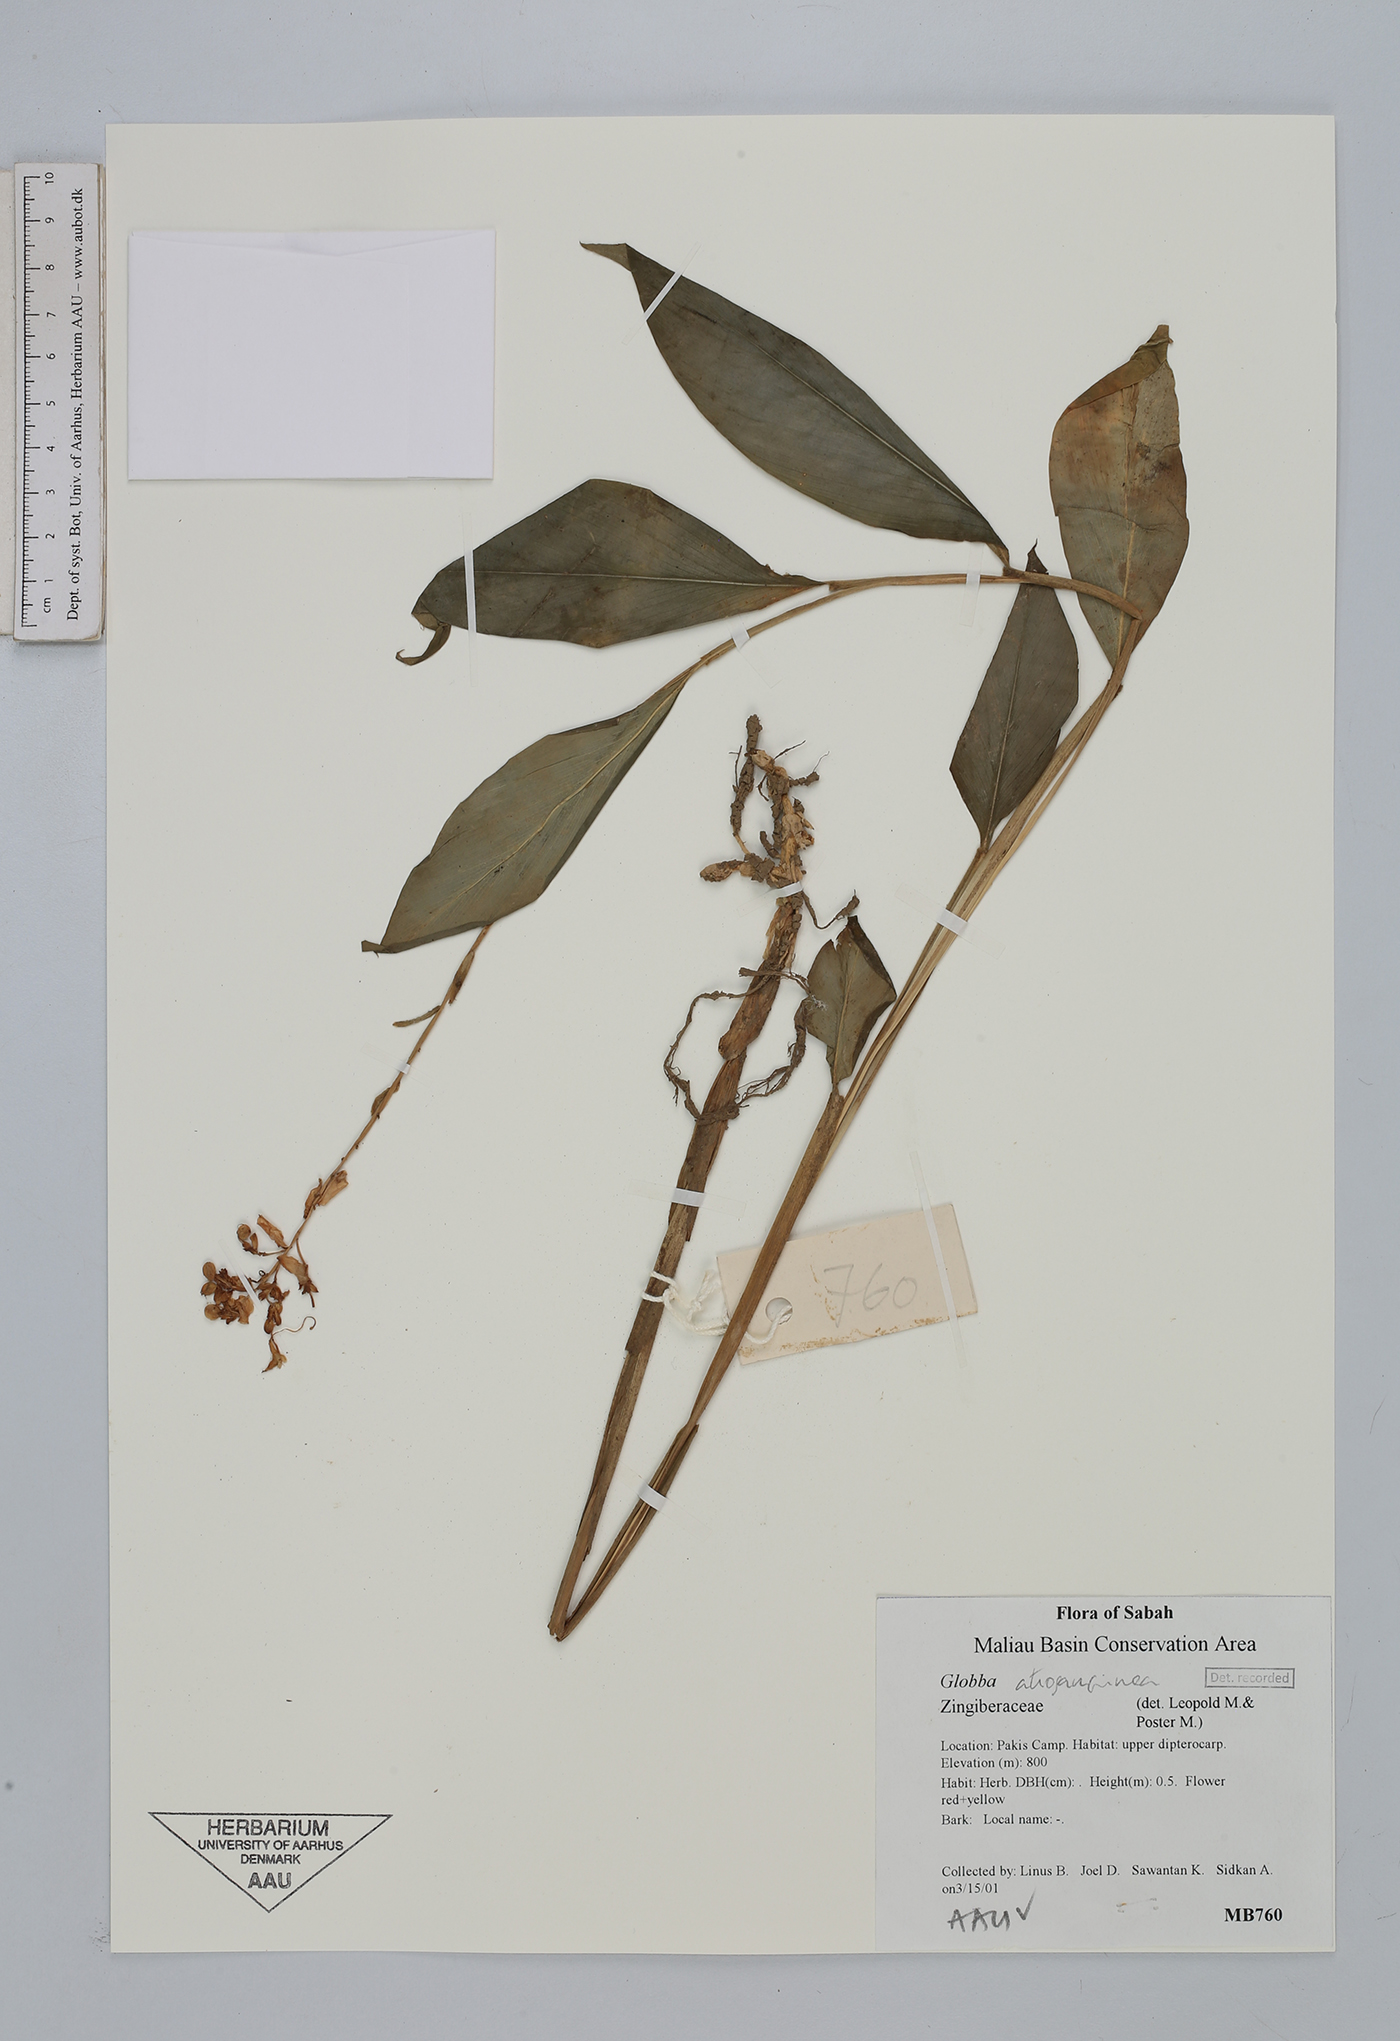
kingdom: Plantae
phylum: Tracheophyta
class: Liliopsida
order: Zingiberales
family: Zingiberaceae
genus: Globba
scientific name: Globba atrosanguinea
